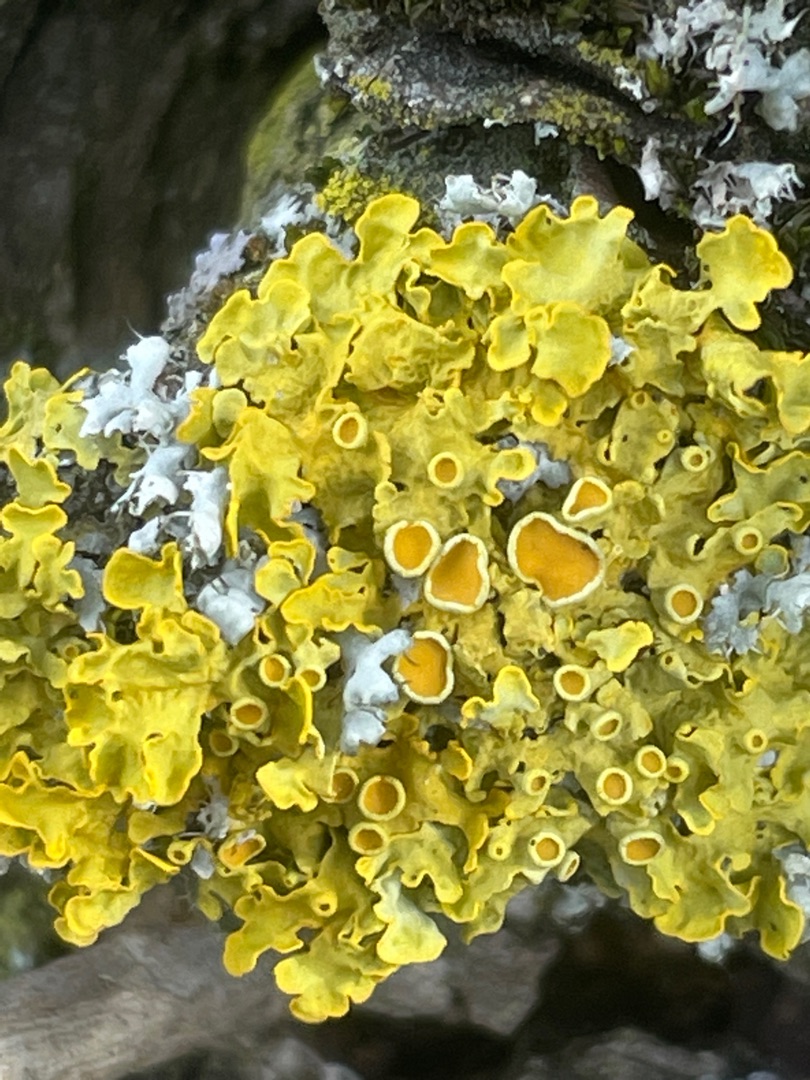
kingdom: Fungi
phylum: Ascomycota
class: Lecanoromycetes
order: Teloschistales
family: Teloschistaceae
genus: Xanthoria
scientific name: Xanthoria parietina
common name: Almindelig væggelav
